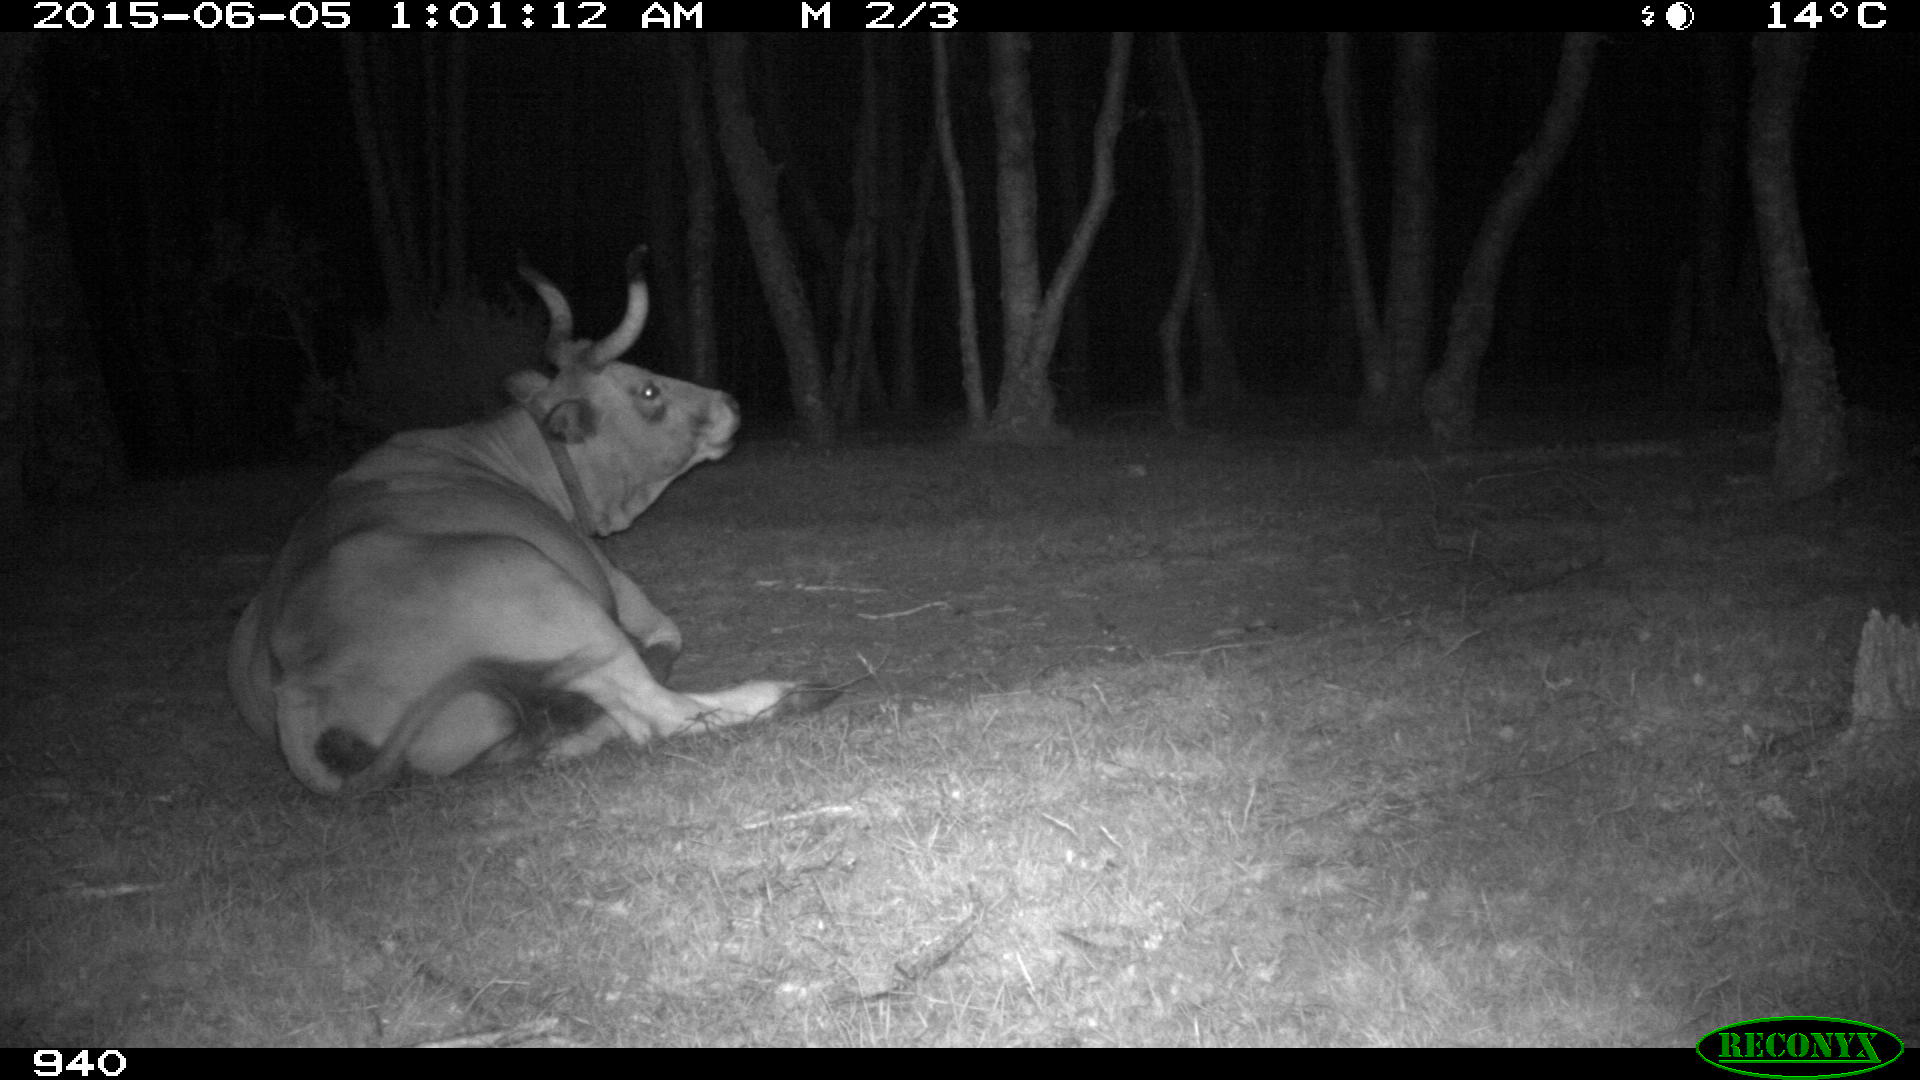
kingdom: Animalia
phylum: Chordata
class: Mammalia
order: Artiodactyla
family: Bovidae
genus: Bos
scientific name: Bos taurus
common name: Domesticated cattle
